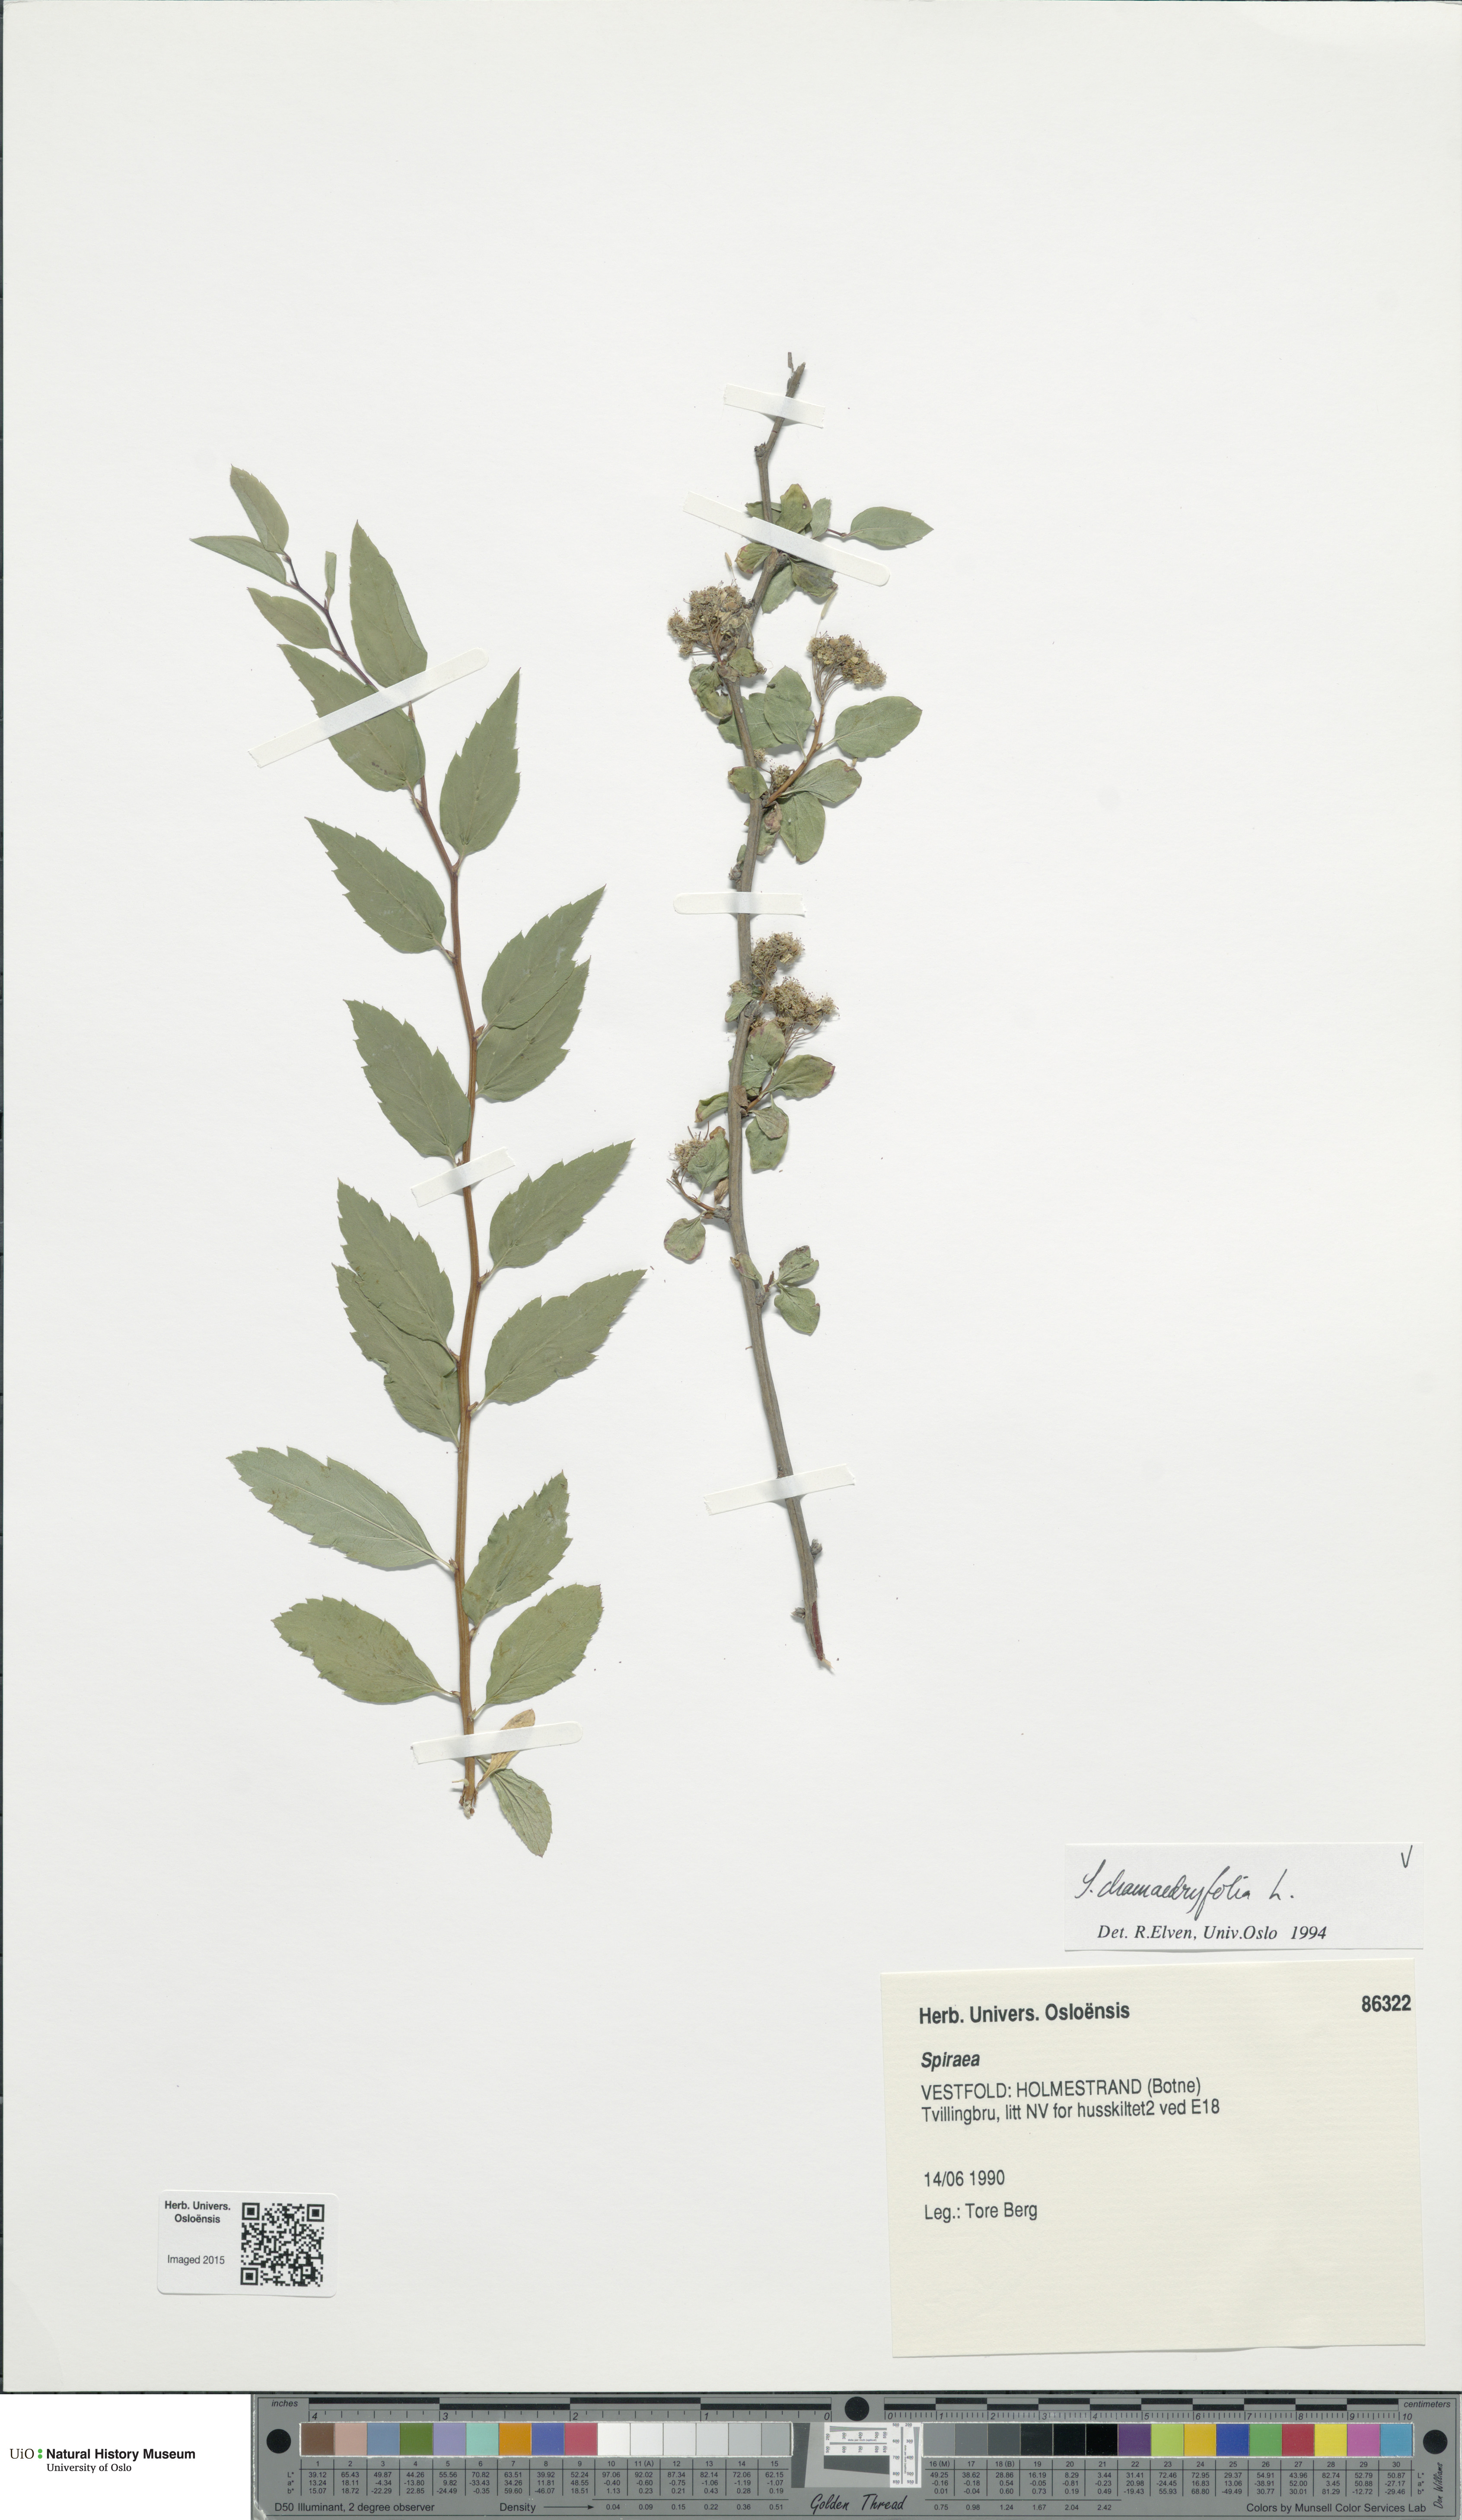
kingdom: Plantae
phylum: Tracheophyta
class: Magnoliopsida
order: Rosales
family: Rosaceae
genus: Spiraea
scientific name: Spiraea chamaedryfolia
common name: Elm-leaved spiraea
